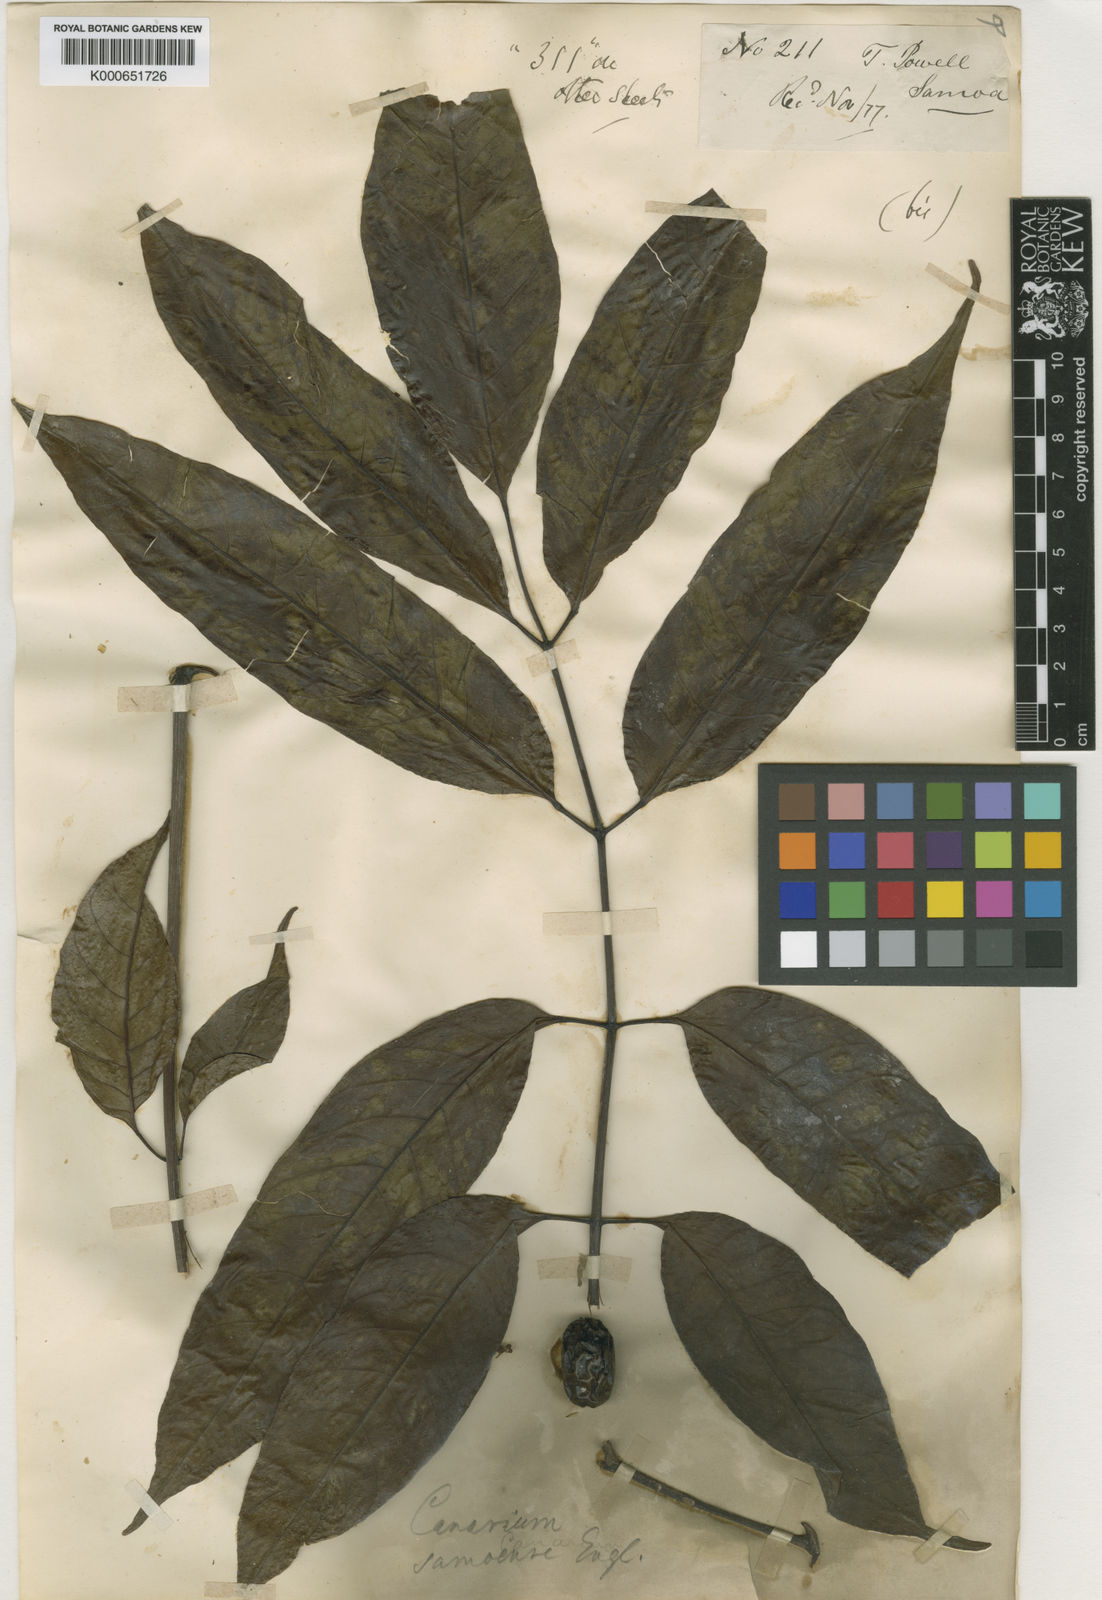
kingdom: Plantae
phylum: Tracheophyta
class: Magnoliopsida
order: Sapindales
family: Burseraceae
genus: Canarium
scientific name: Canarium vitiense
